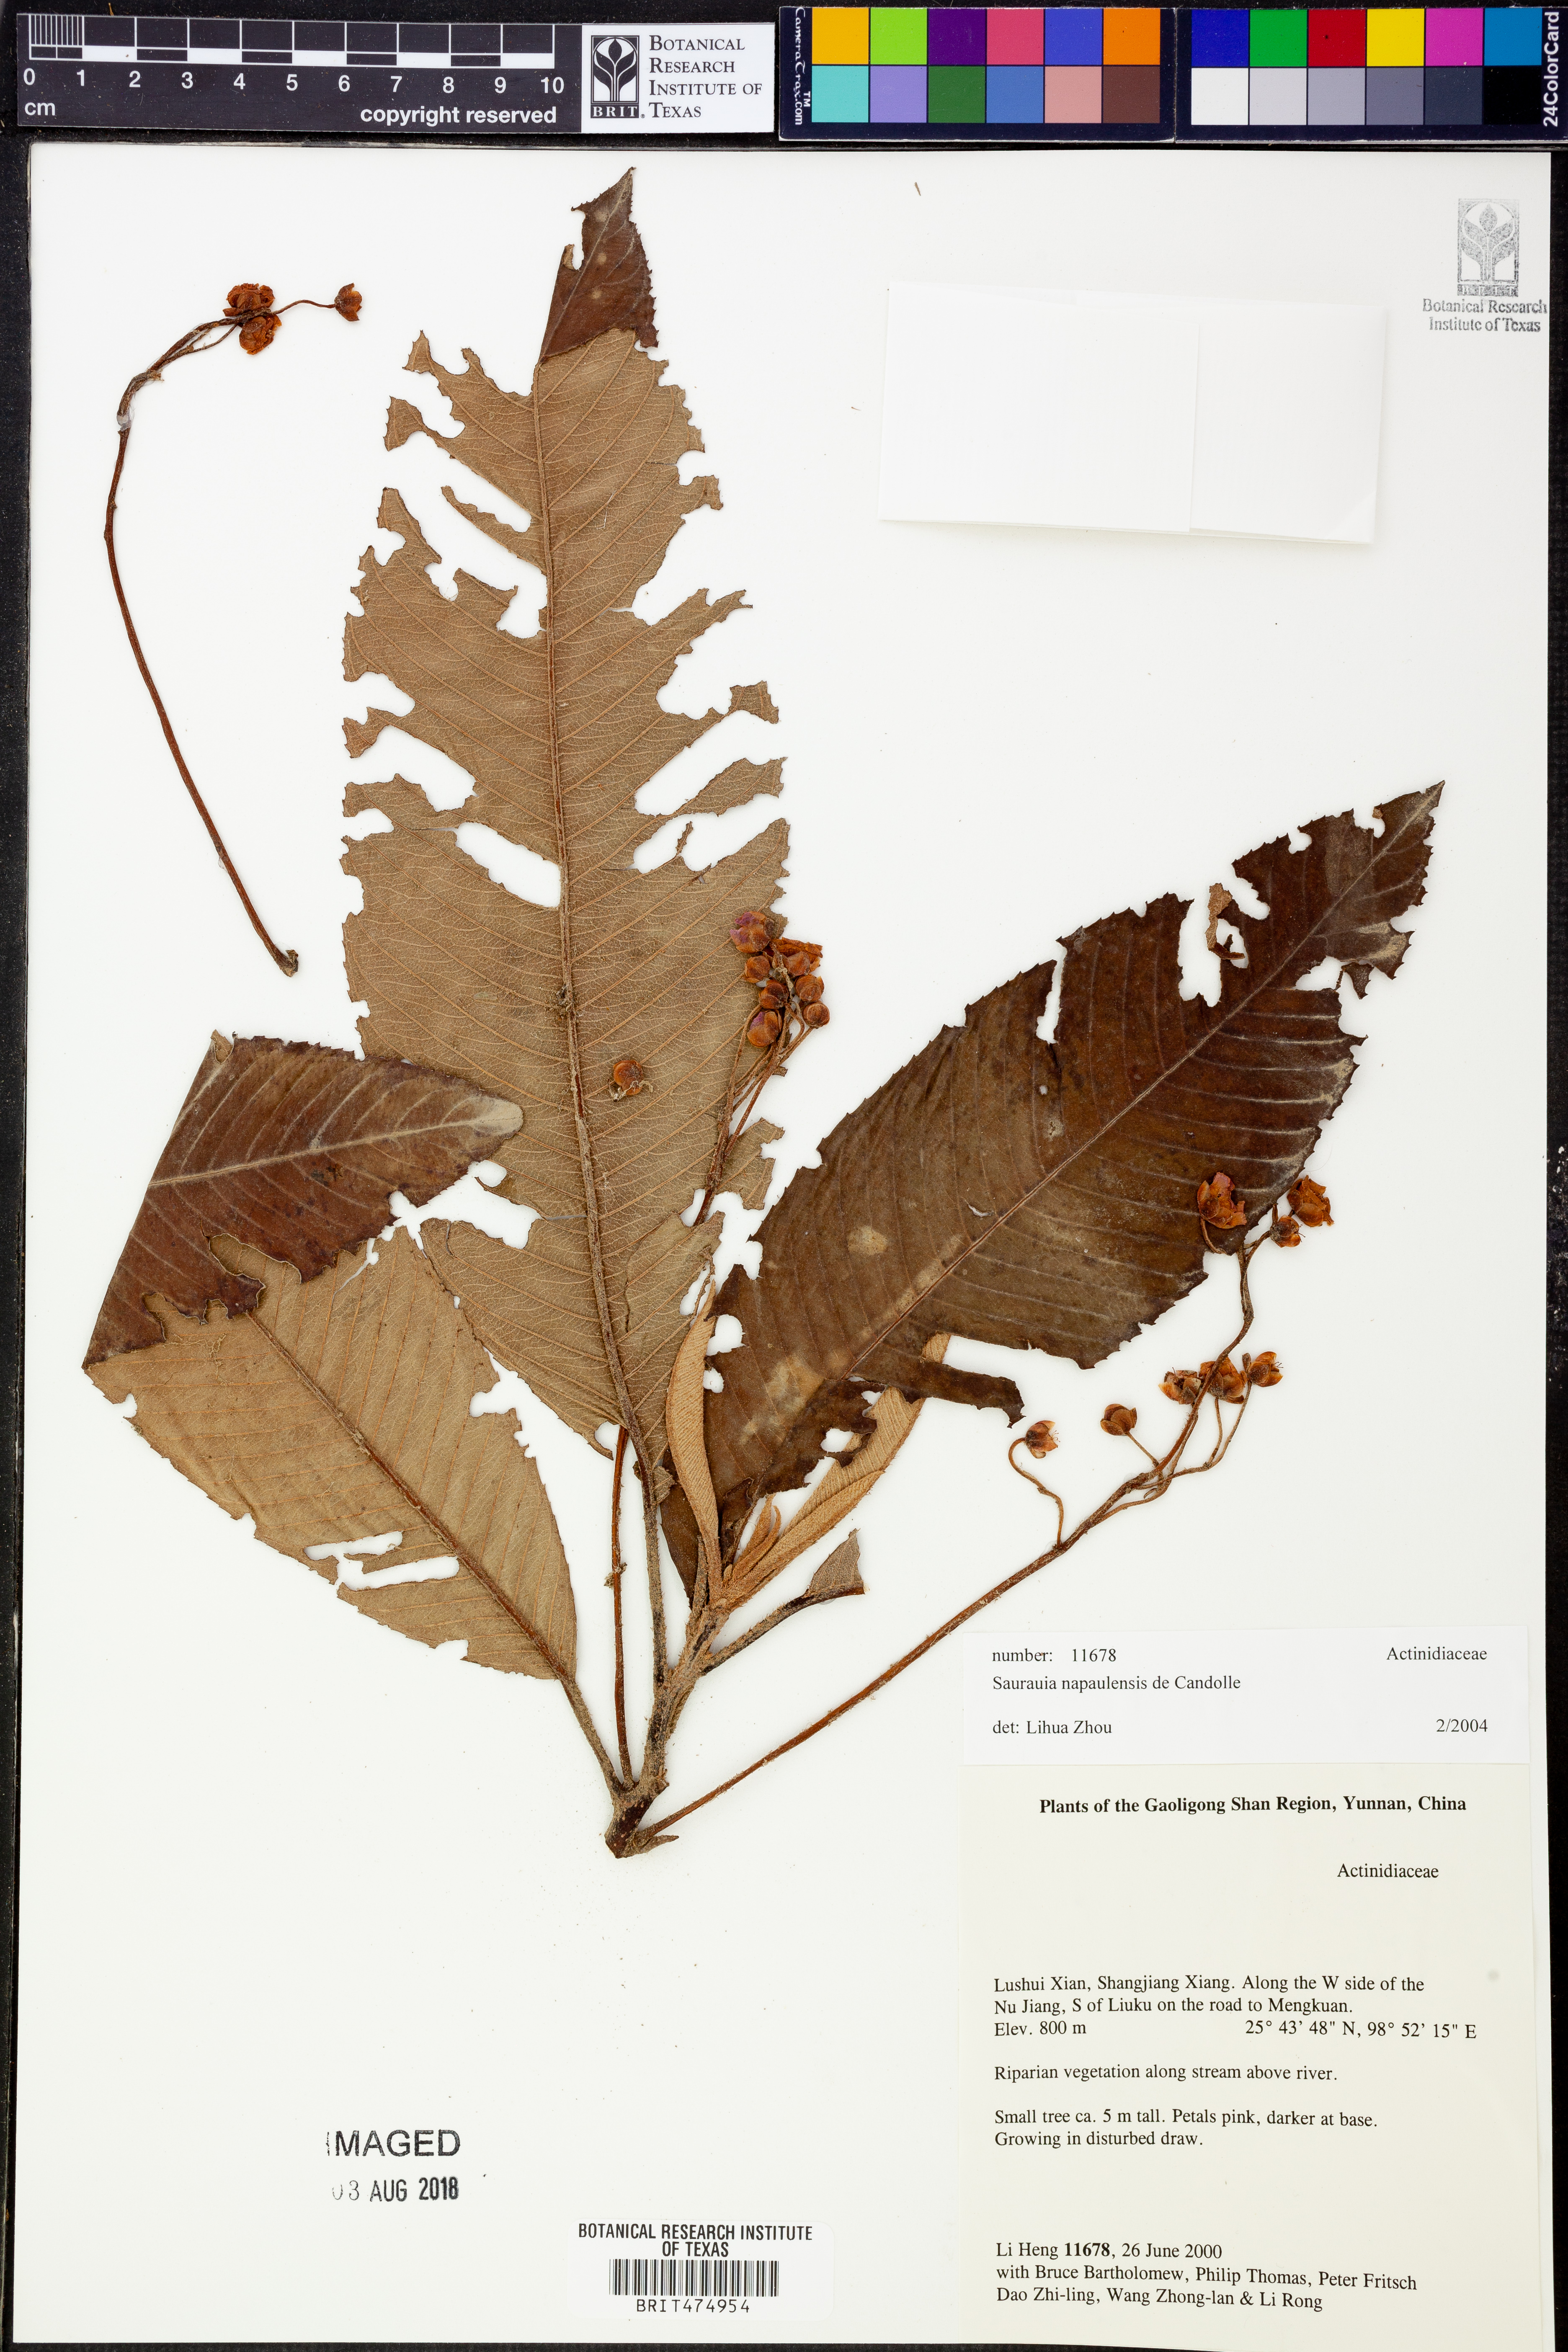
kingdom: Plantae
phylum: Tracheophyta
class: Magnoliopsida
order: Ericales
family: Actinidiaceae
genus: Saurauia
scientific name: Saurauia napaulensis
